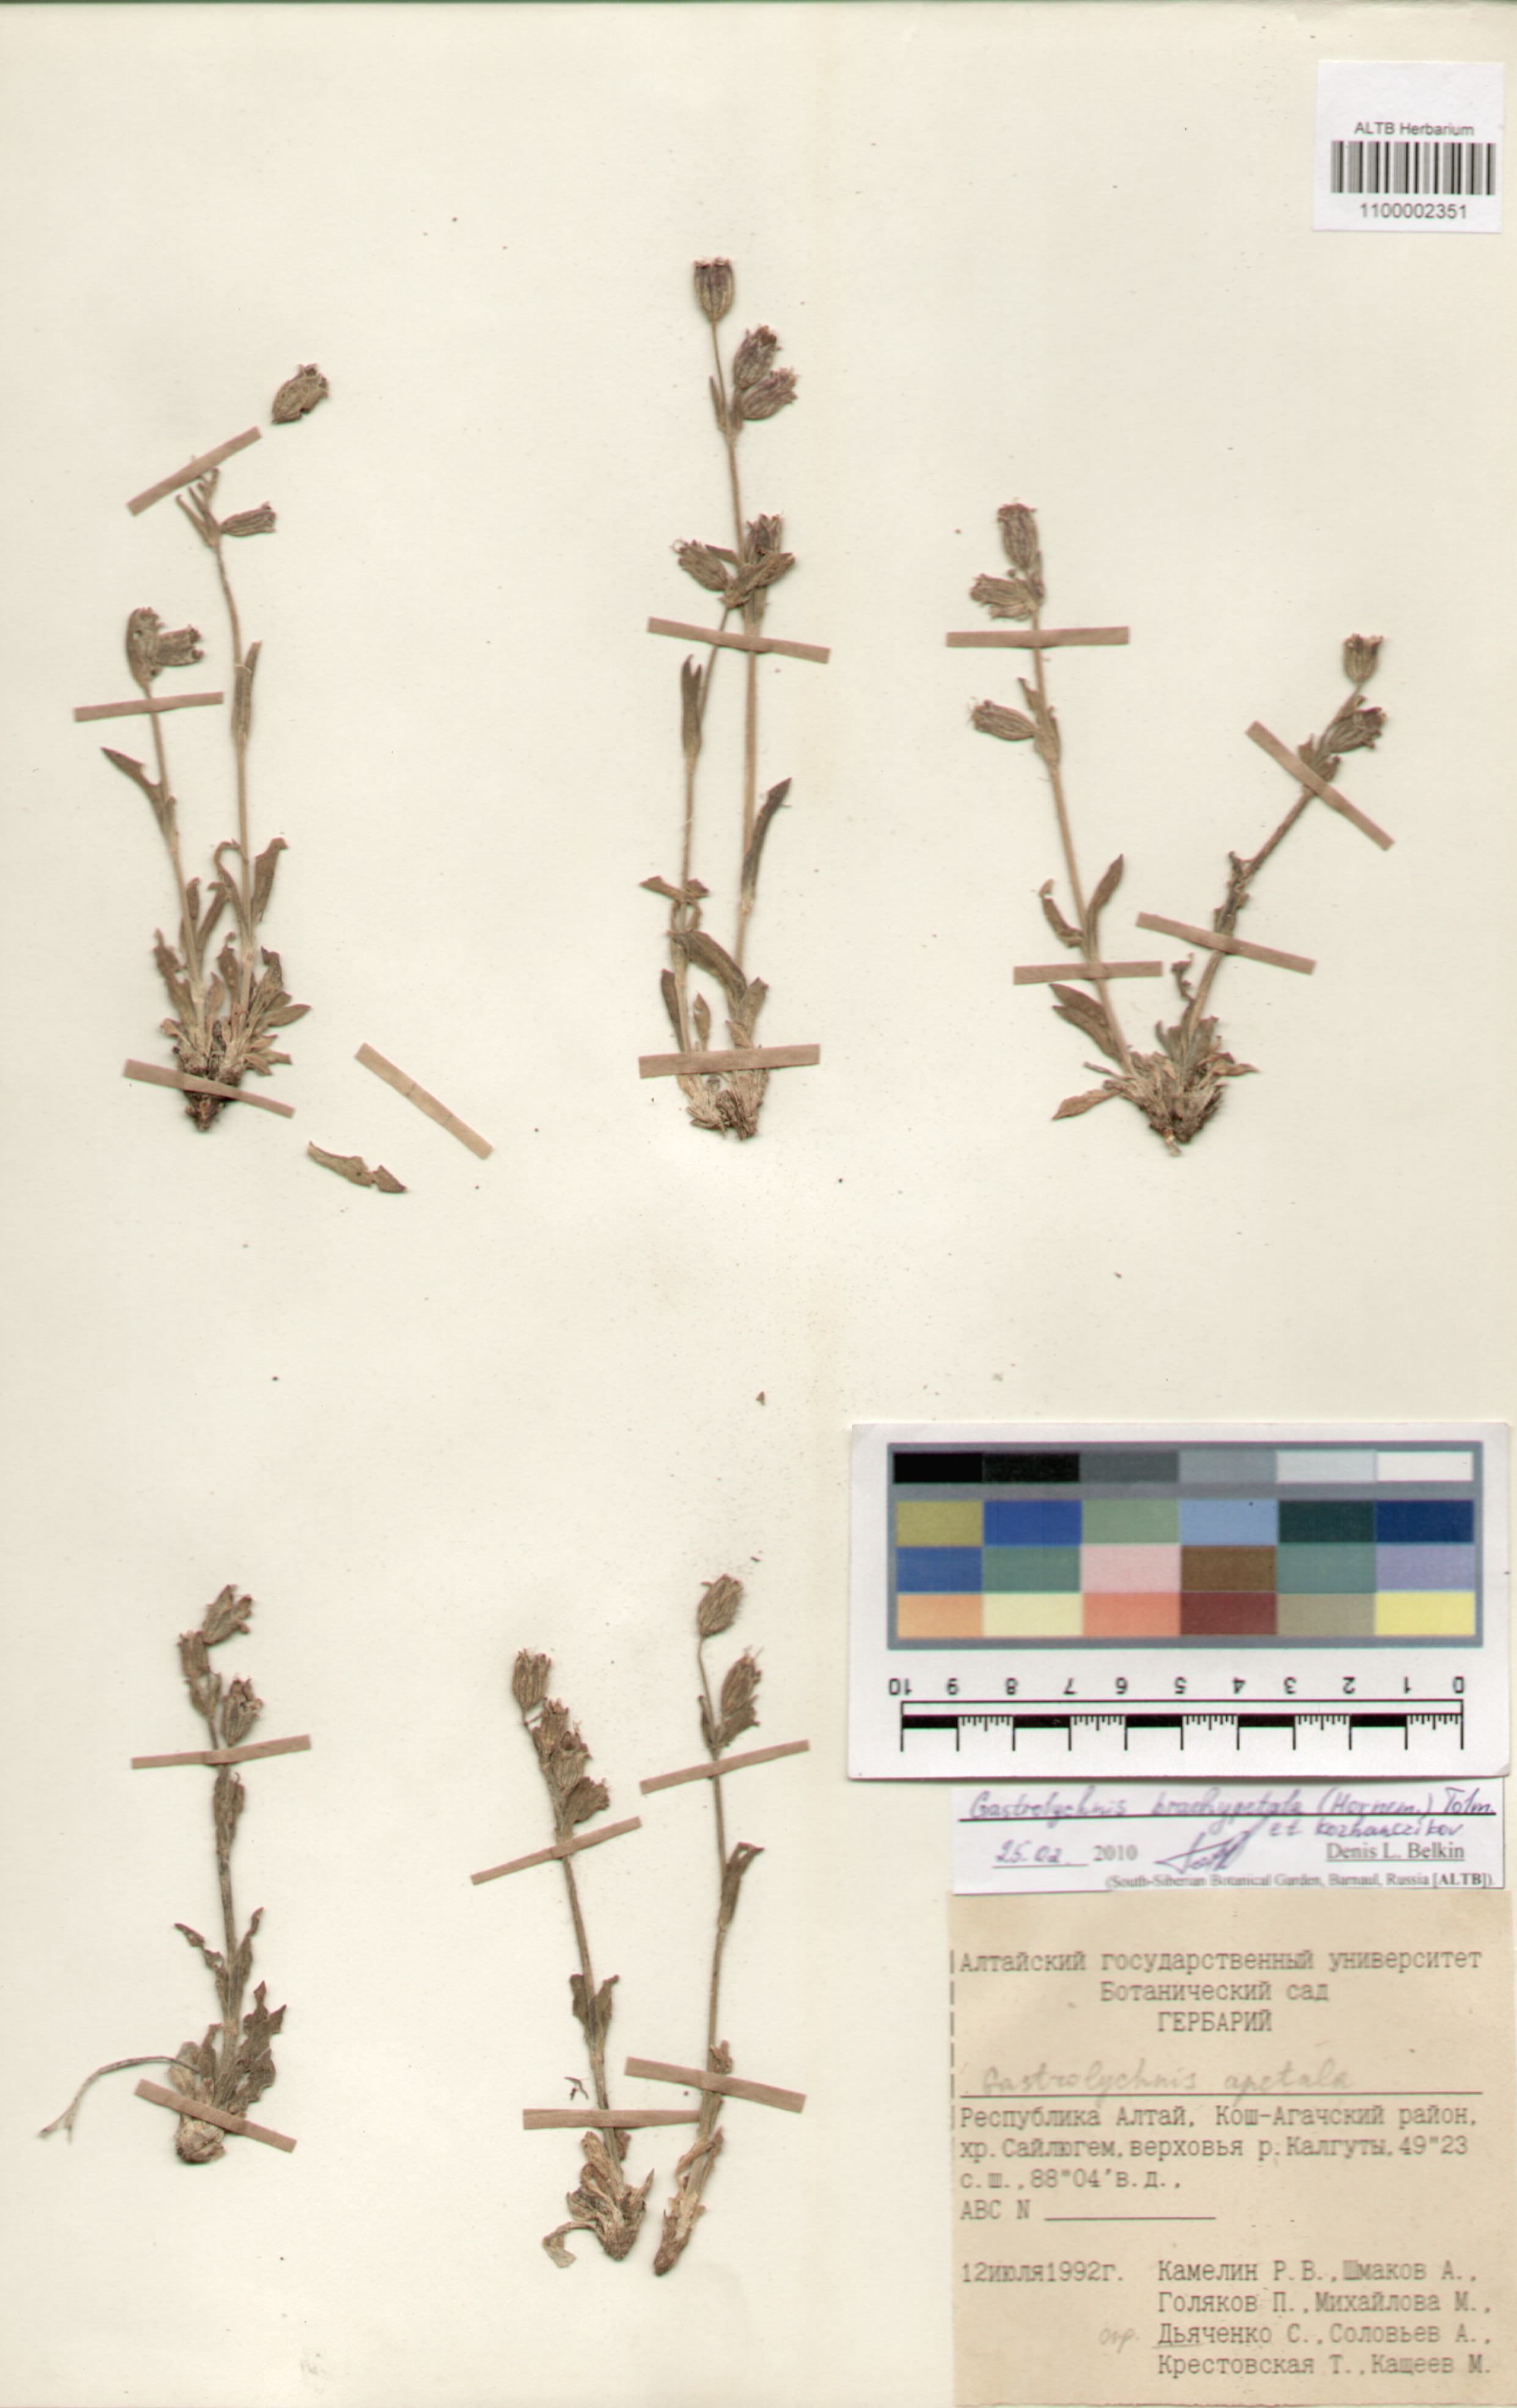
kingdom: Plantae
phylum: Tracheophyta
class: Magnoliopsida
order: Caryophyllales
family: Caryophyllaceae
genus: Silene
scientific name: Silene songarica
